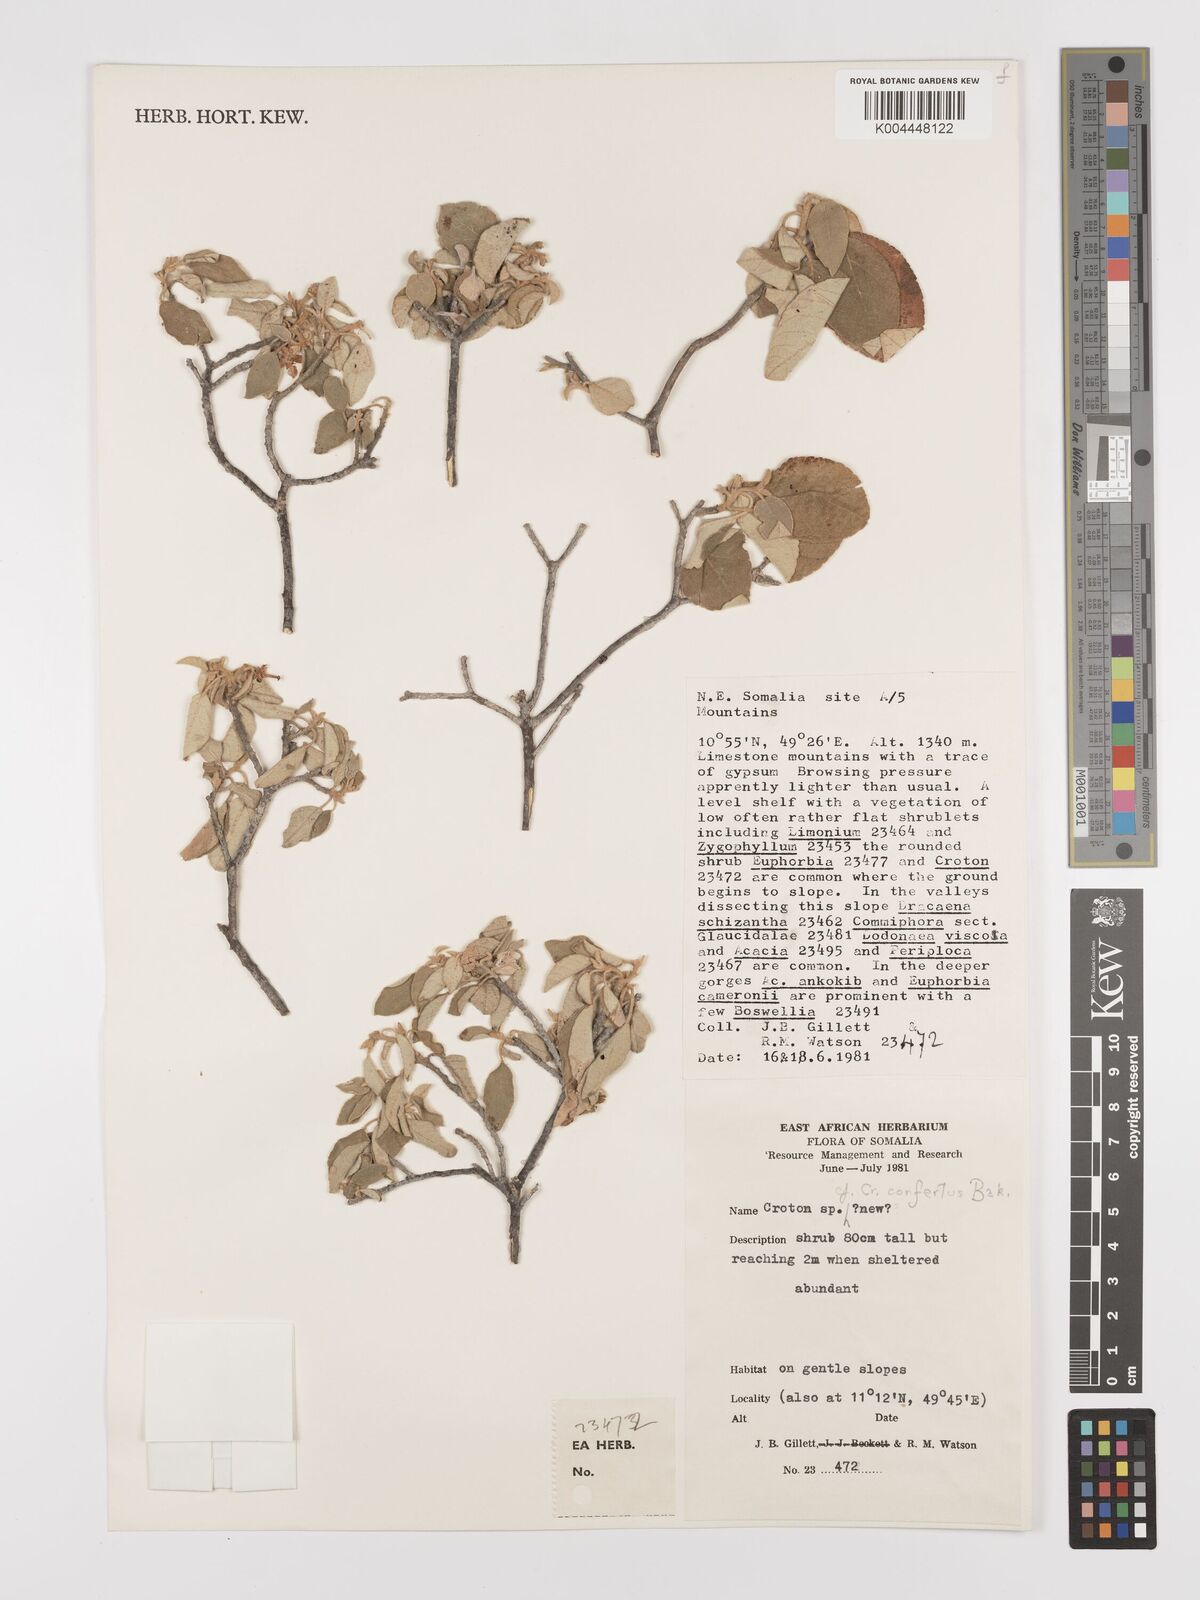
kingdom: Plantae
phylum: Tracheophyta
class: Magnoliopsida
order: Malpighiales
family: Euphorbiaceae
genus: Croton
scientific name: Croton confertus
